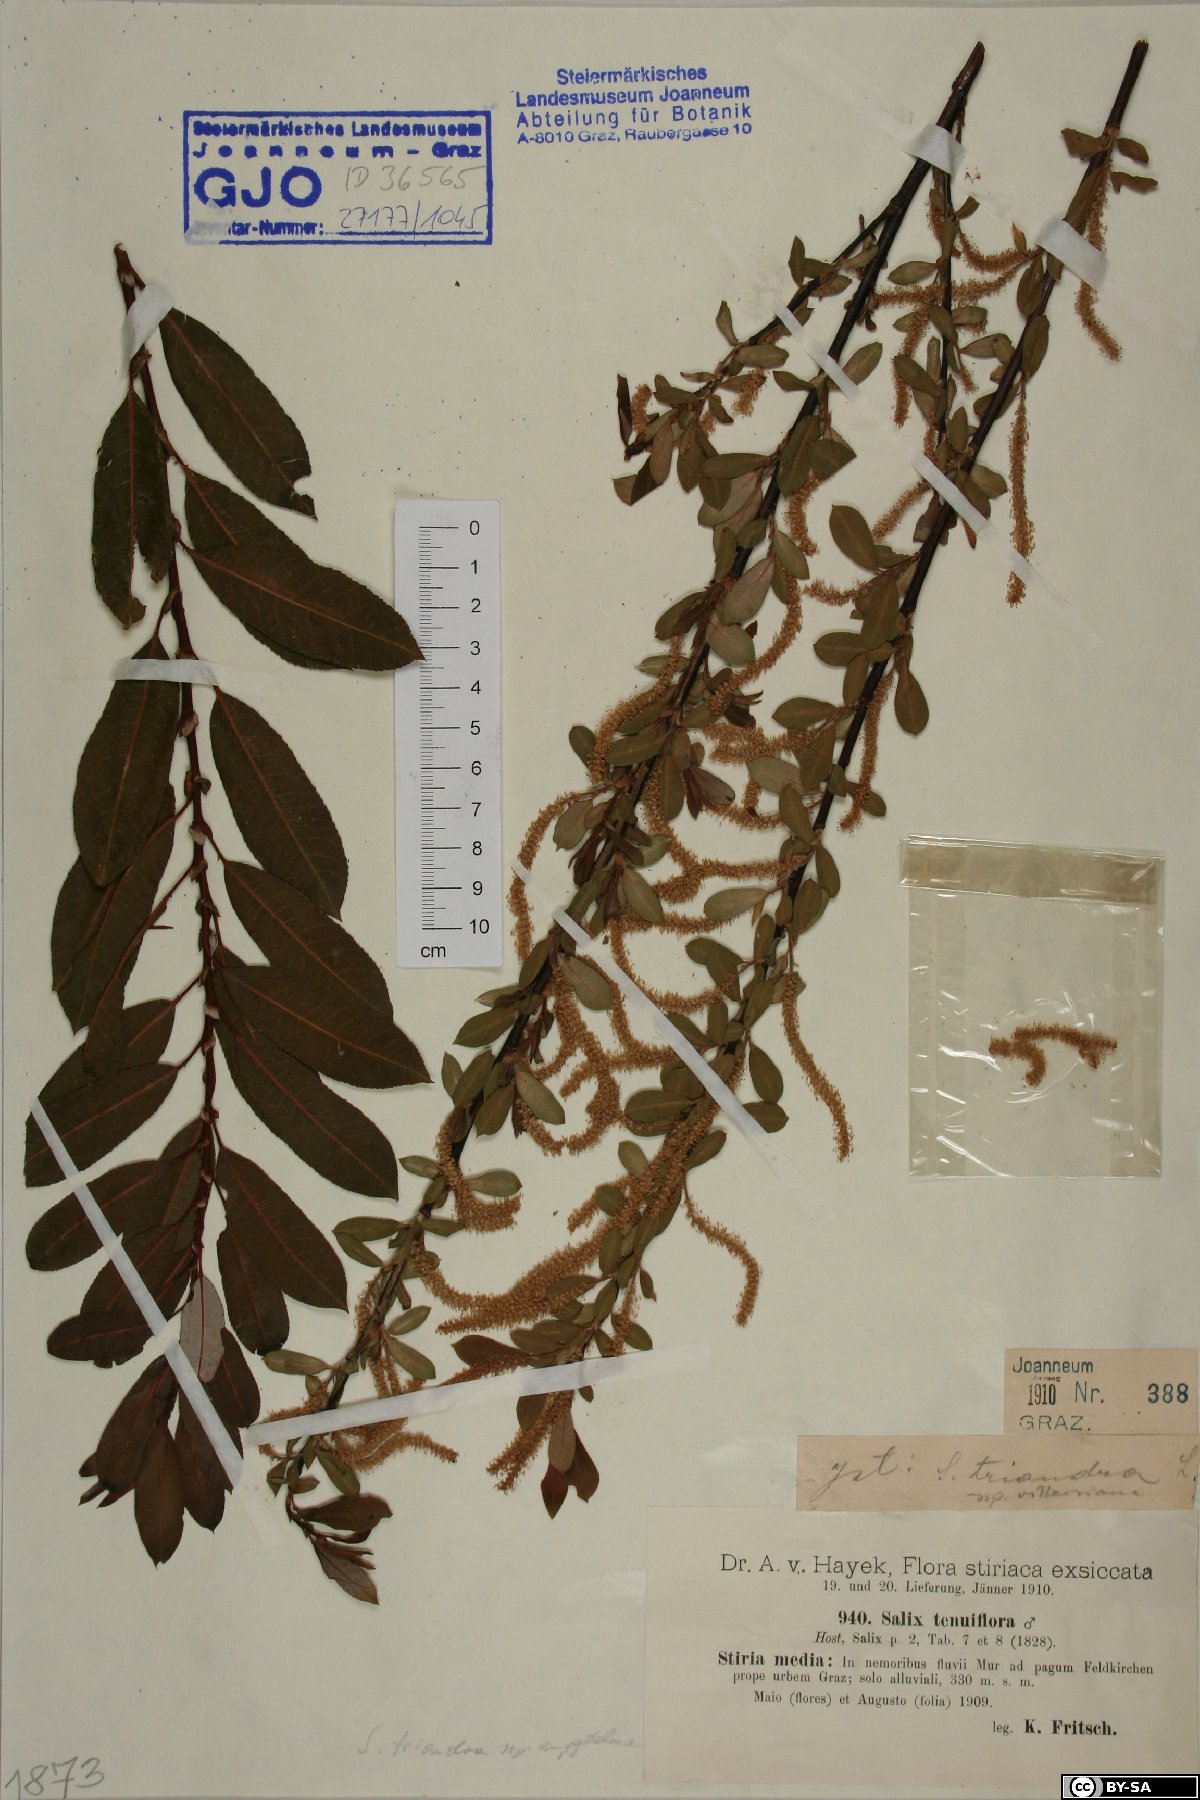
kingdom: Plantae
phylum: Tracheophyta
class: Magnoliopsida
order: Malpighiales
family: Salicaceae
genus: Salix
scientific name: Salix triandra
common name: Almond willow
